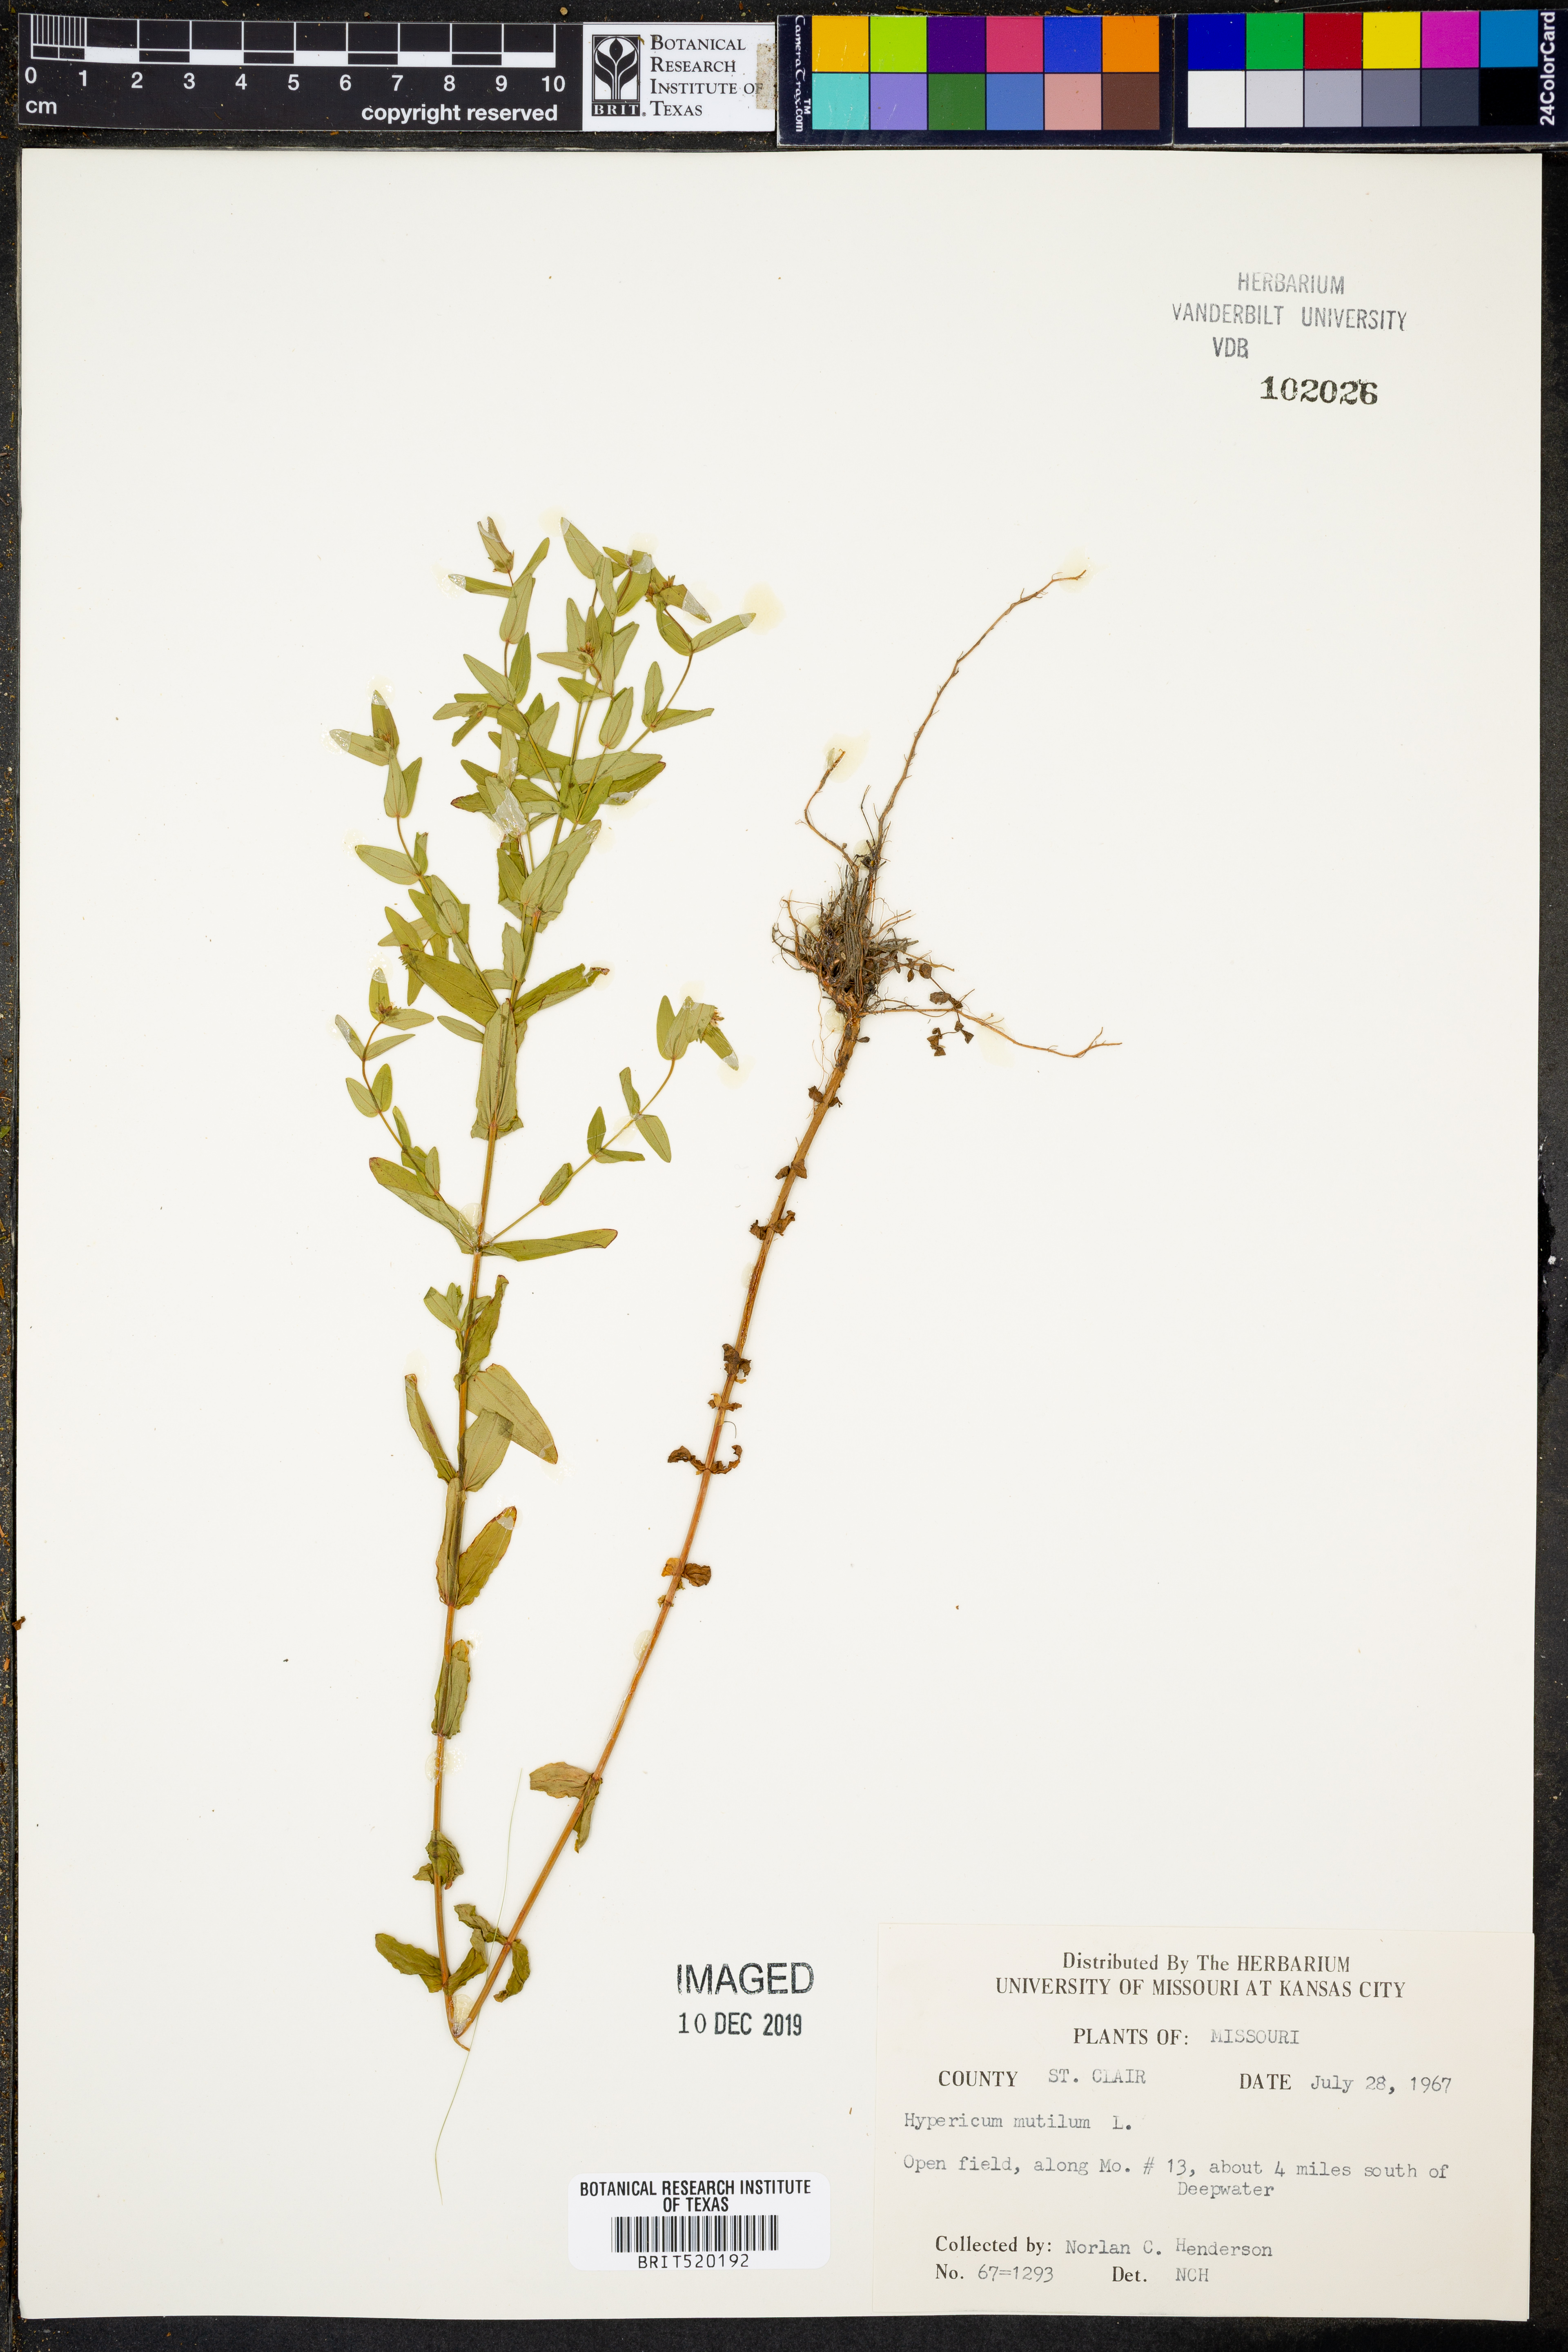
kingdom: Plantae
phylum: Tracheophyta
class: Magnoliopsida
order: Malpighiales
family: Hypericaceae
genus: Hypericum
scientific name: Hypericum mutilum
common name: Dwarf st. john's-wort
